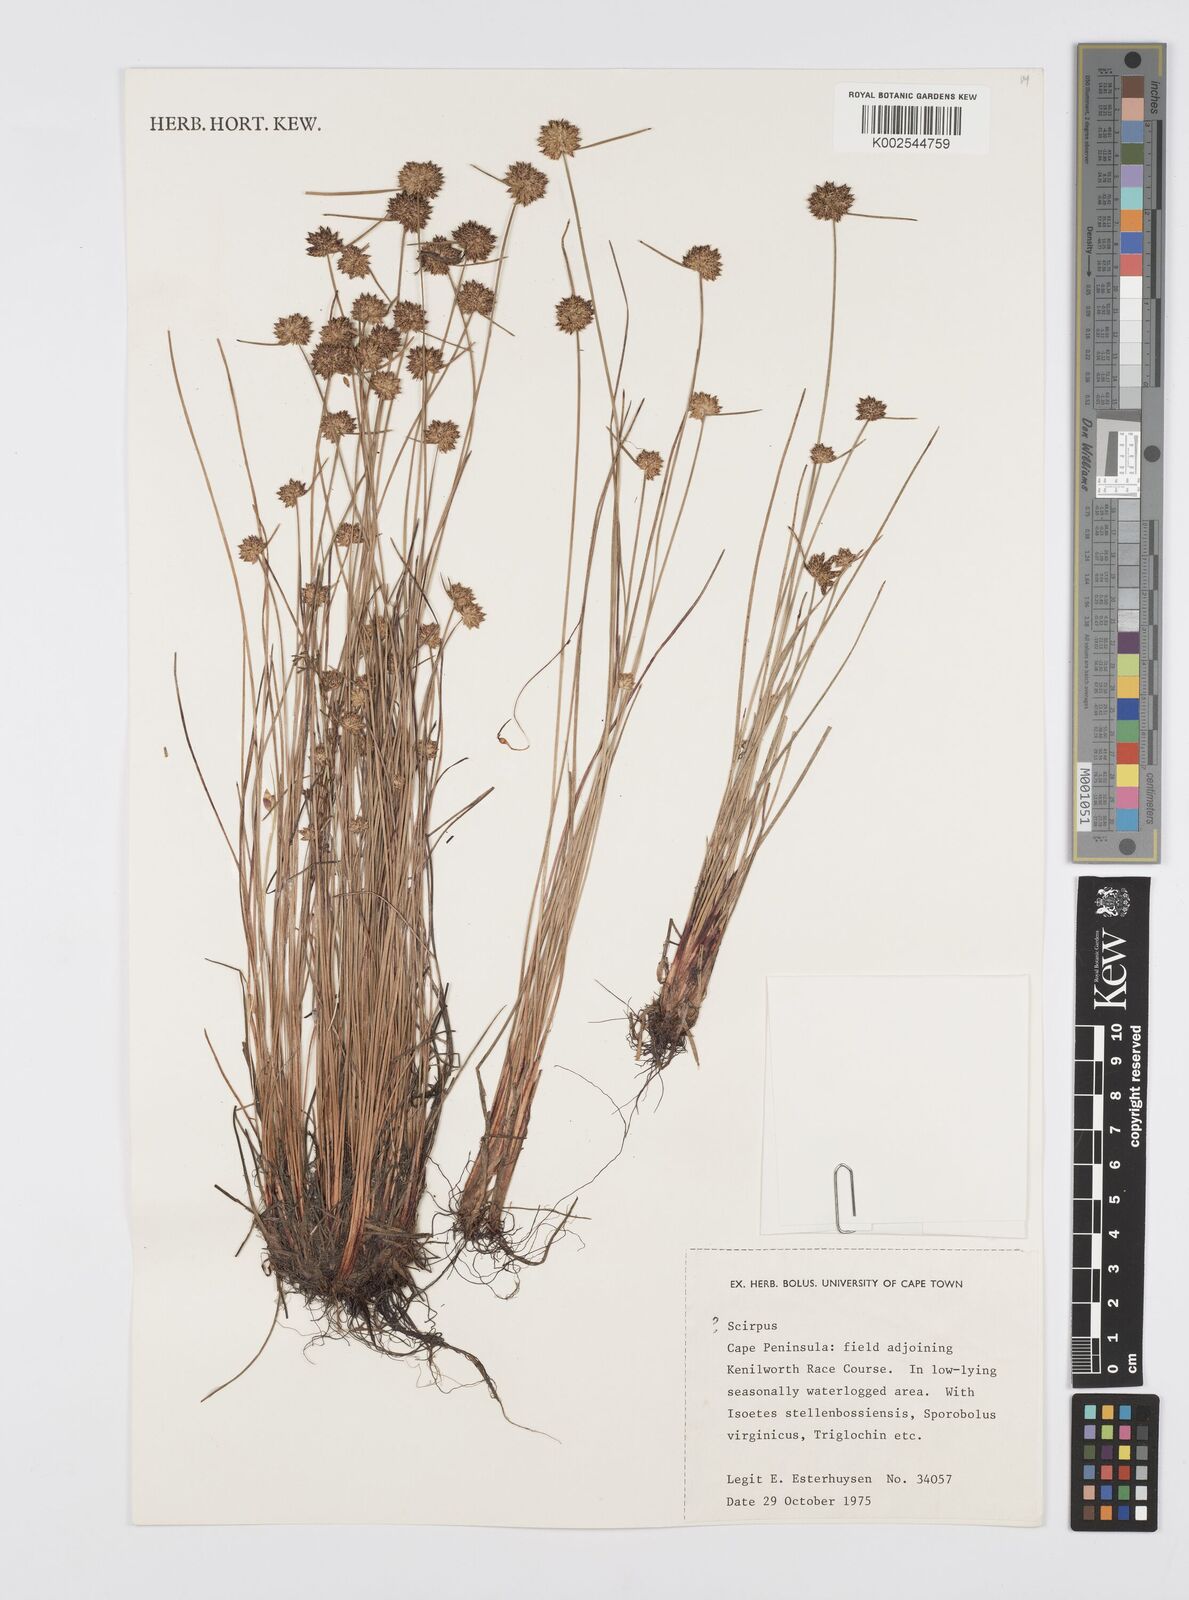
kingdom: Plantae
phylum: Tracheophyta
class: Liliopsida
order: Poales
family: Cyperaceae
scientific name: Cyperaceae
